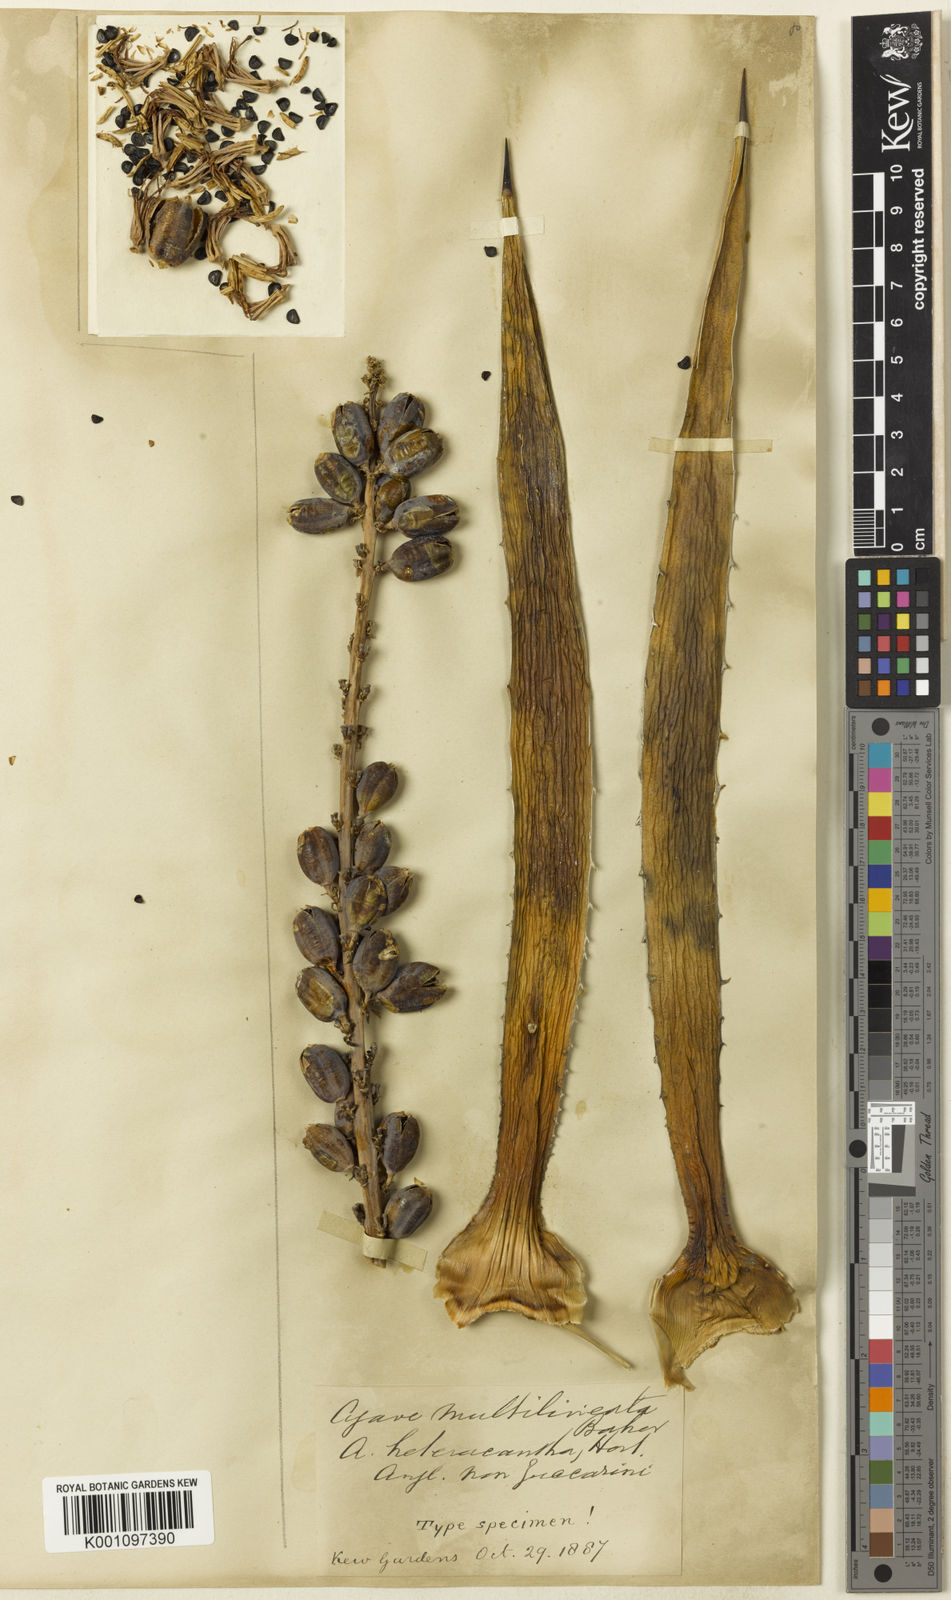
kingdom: Plantae
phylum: Tracheophyta
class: Liliopsida
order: Asparagales
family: Asparagaceae
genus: Agave
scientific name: Agave lechuguilla
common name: Lecheguilla agave
